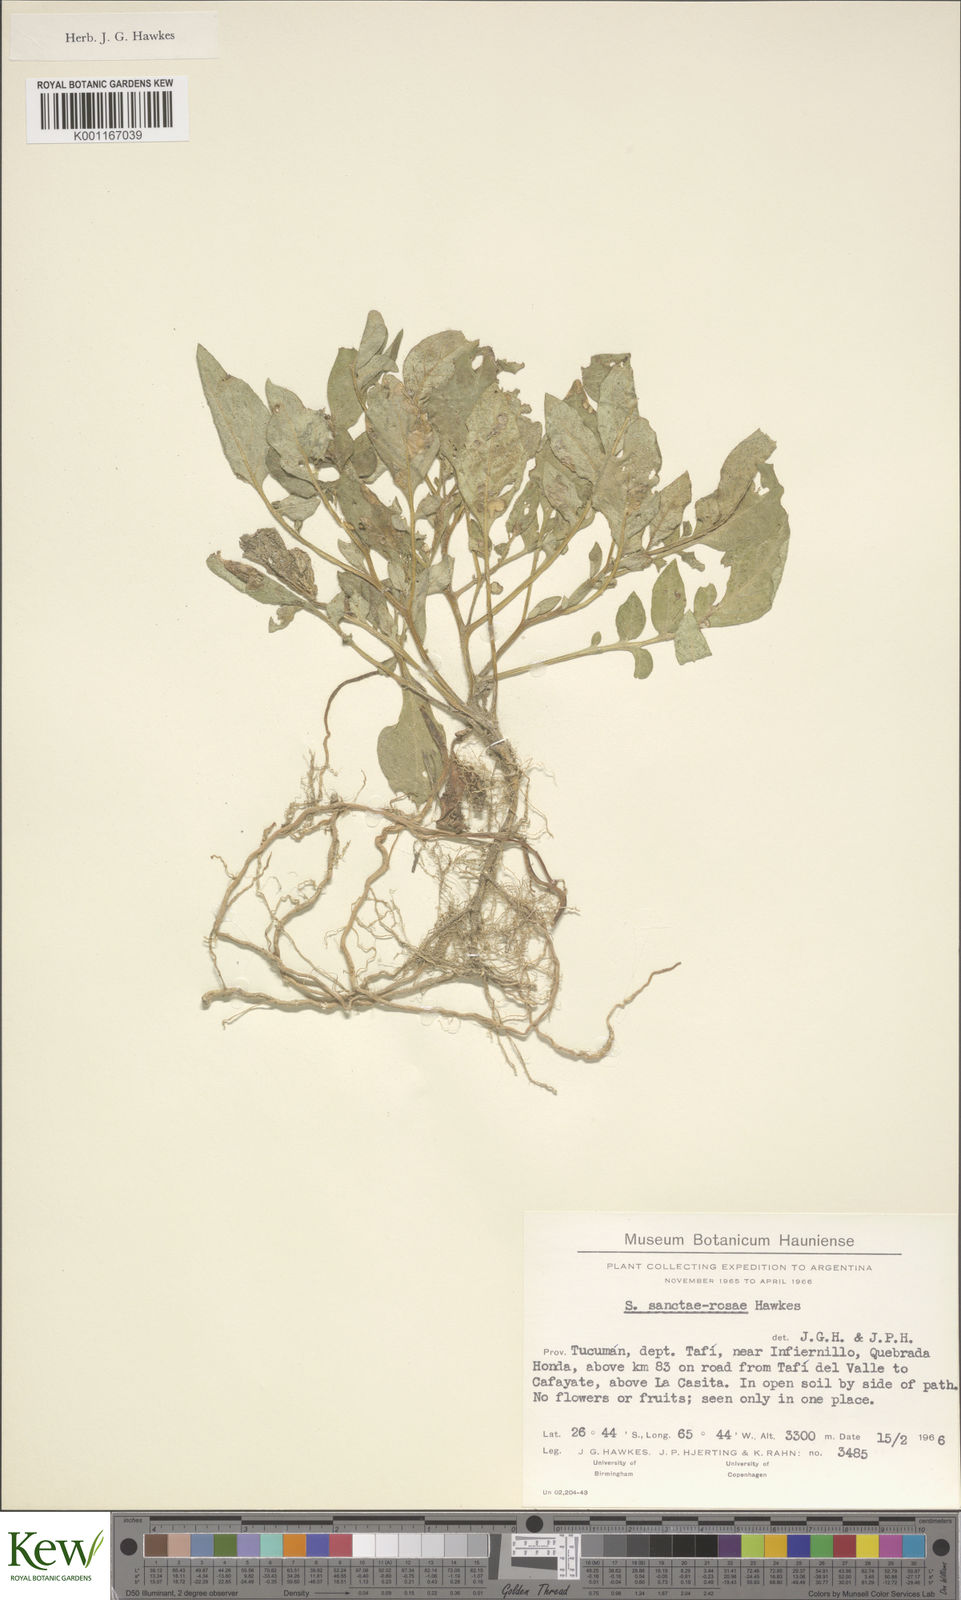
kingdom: Plantae
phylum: Tracheophyta
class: Magnoliopsida
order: Solanales
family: Solanaceae
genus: Solanum
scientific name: Solanum boliviense
